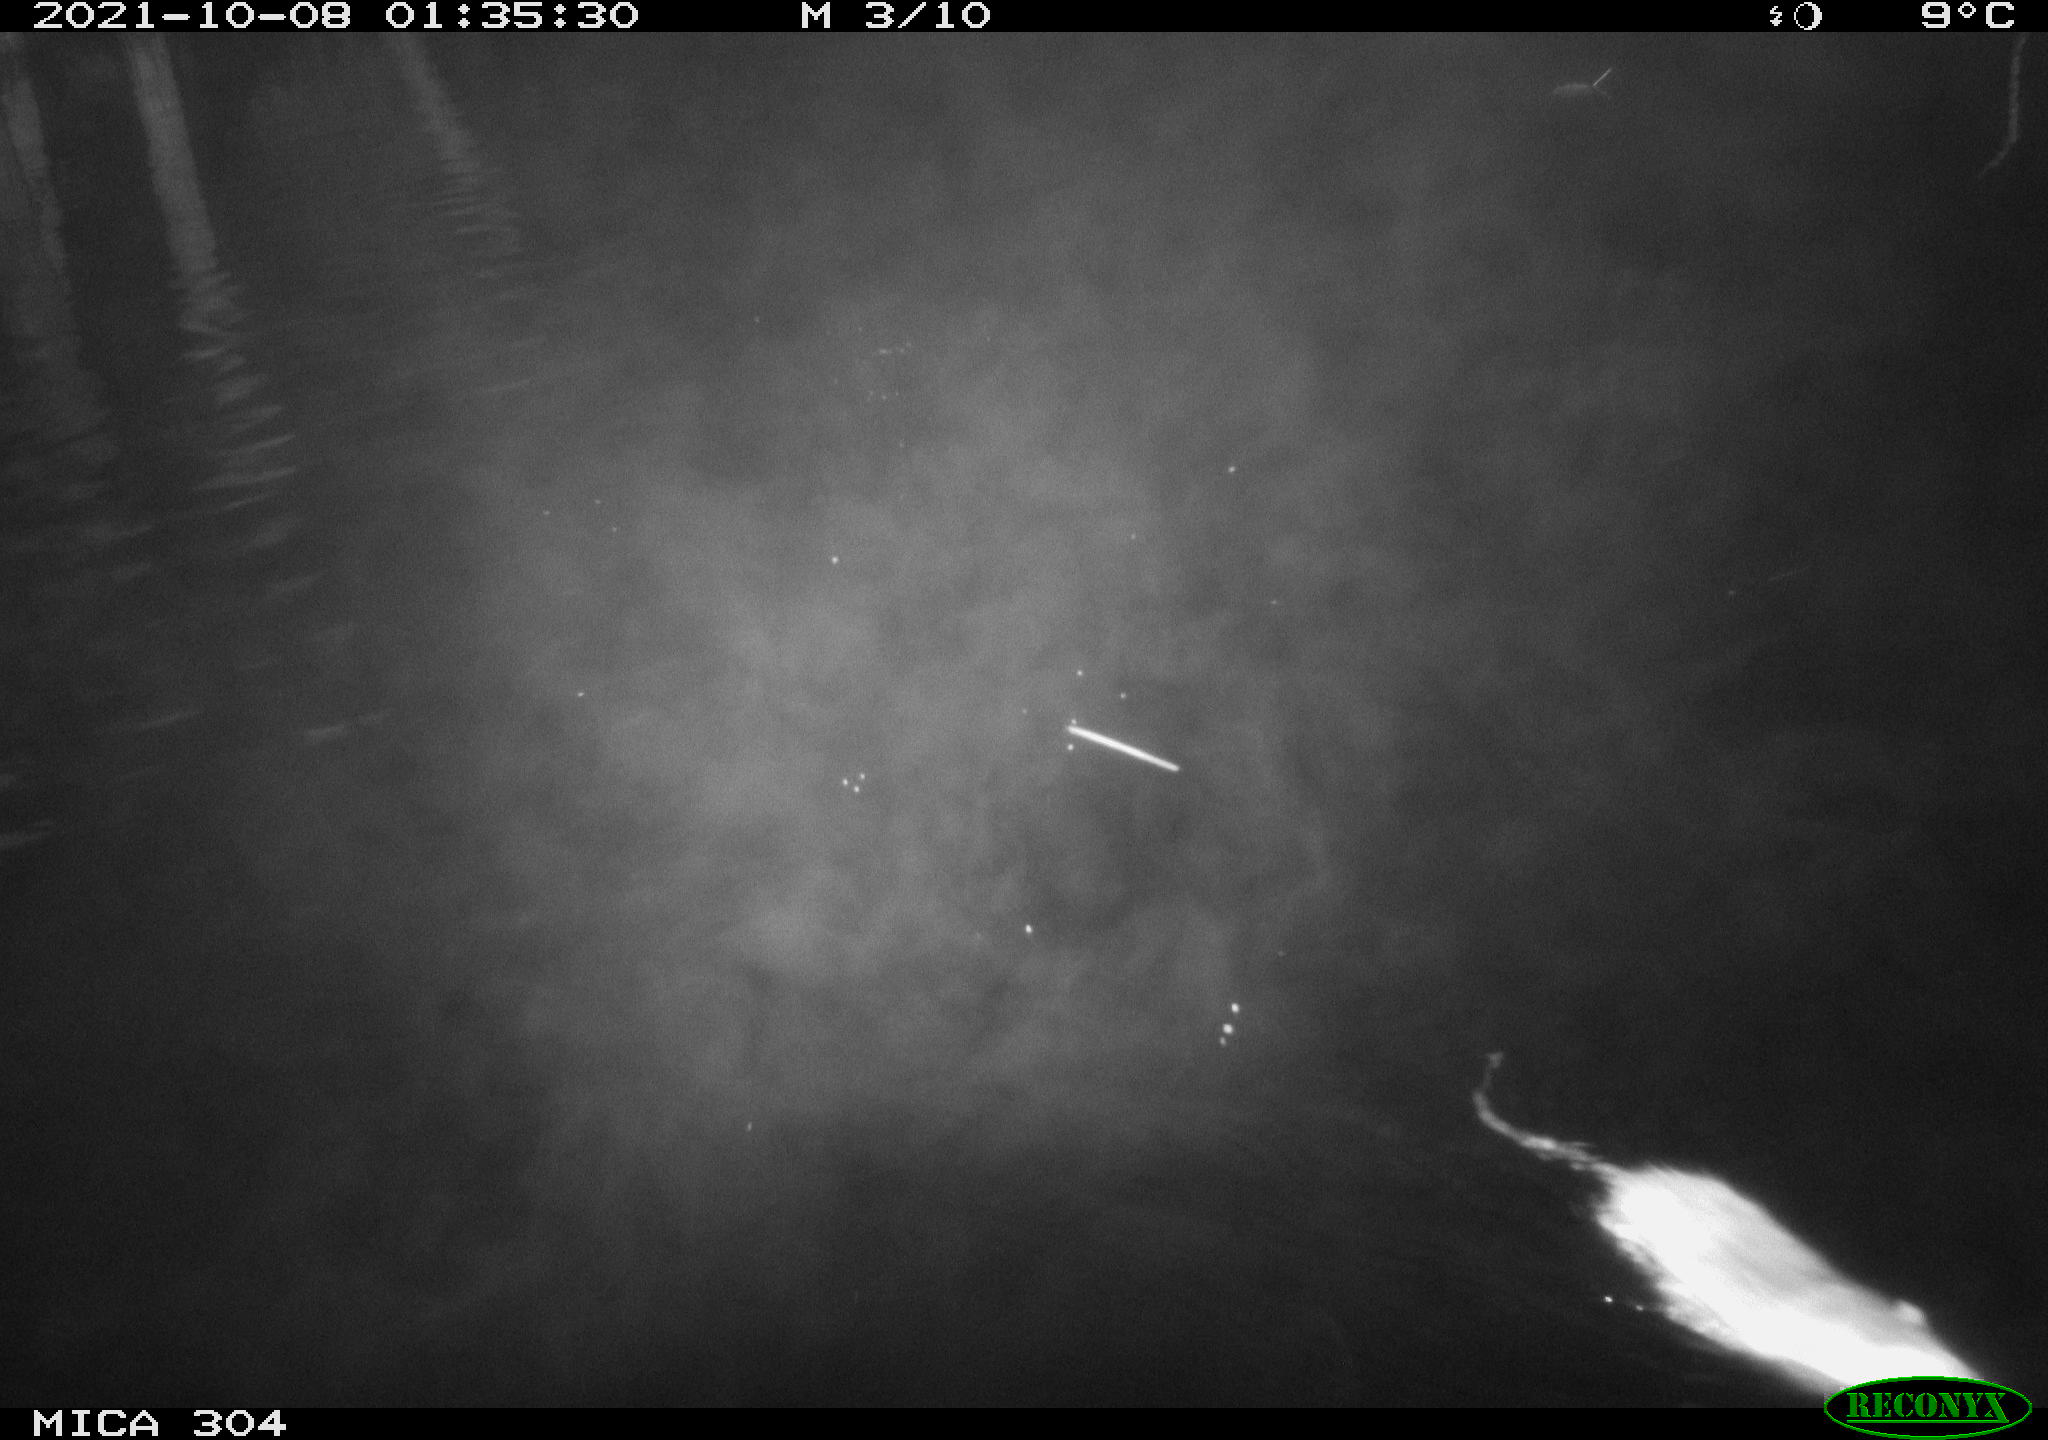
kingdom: Animalia
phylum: Chordata
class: Mammalia
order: Rodentia
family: Cricetidae
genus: Ondatra
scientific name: Ondatra zibethicus
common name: Muskrat
